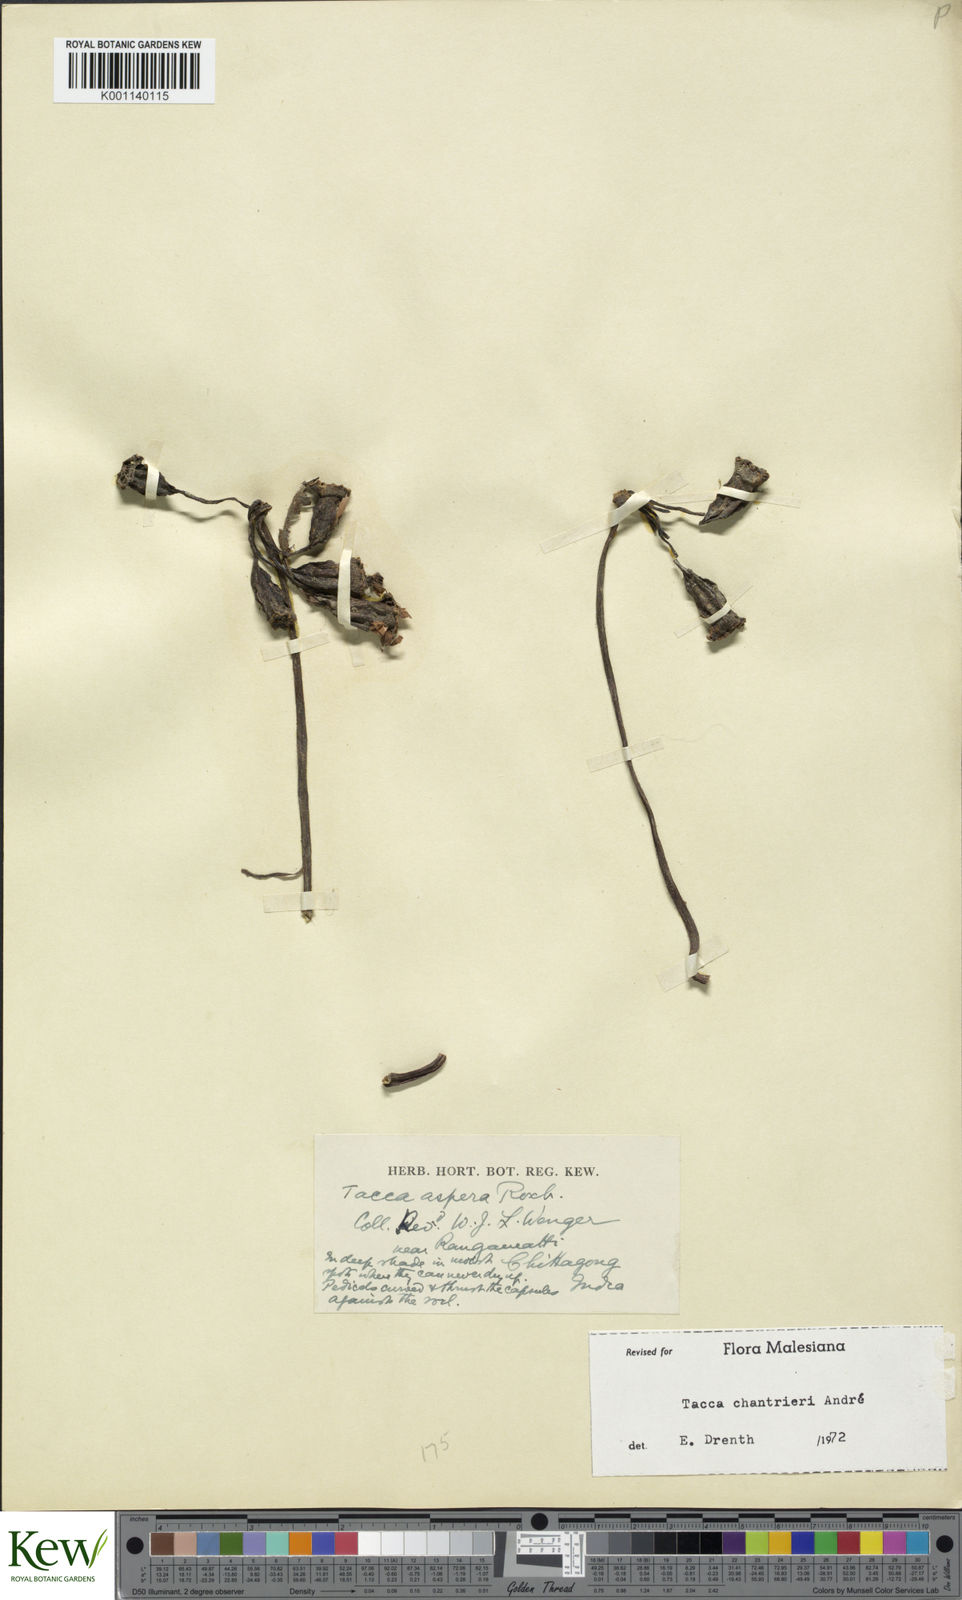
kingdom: Plantae
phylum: Tracheophyta
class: Liliopsida
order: Dioscoreales
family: Dioscoreaceae
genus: Tacca
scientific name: Tacca
